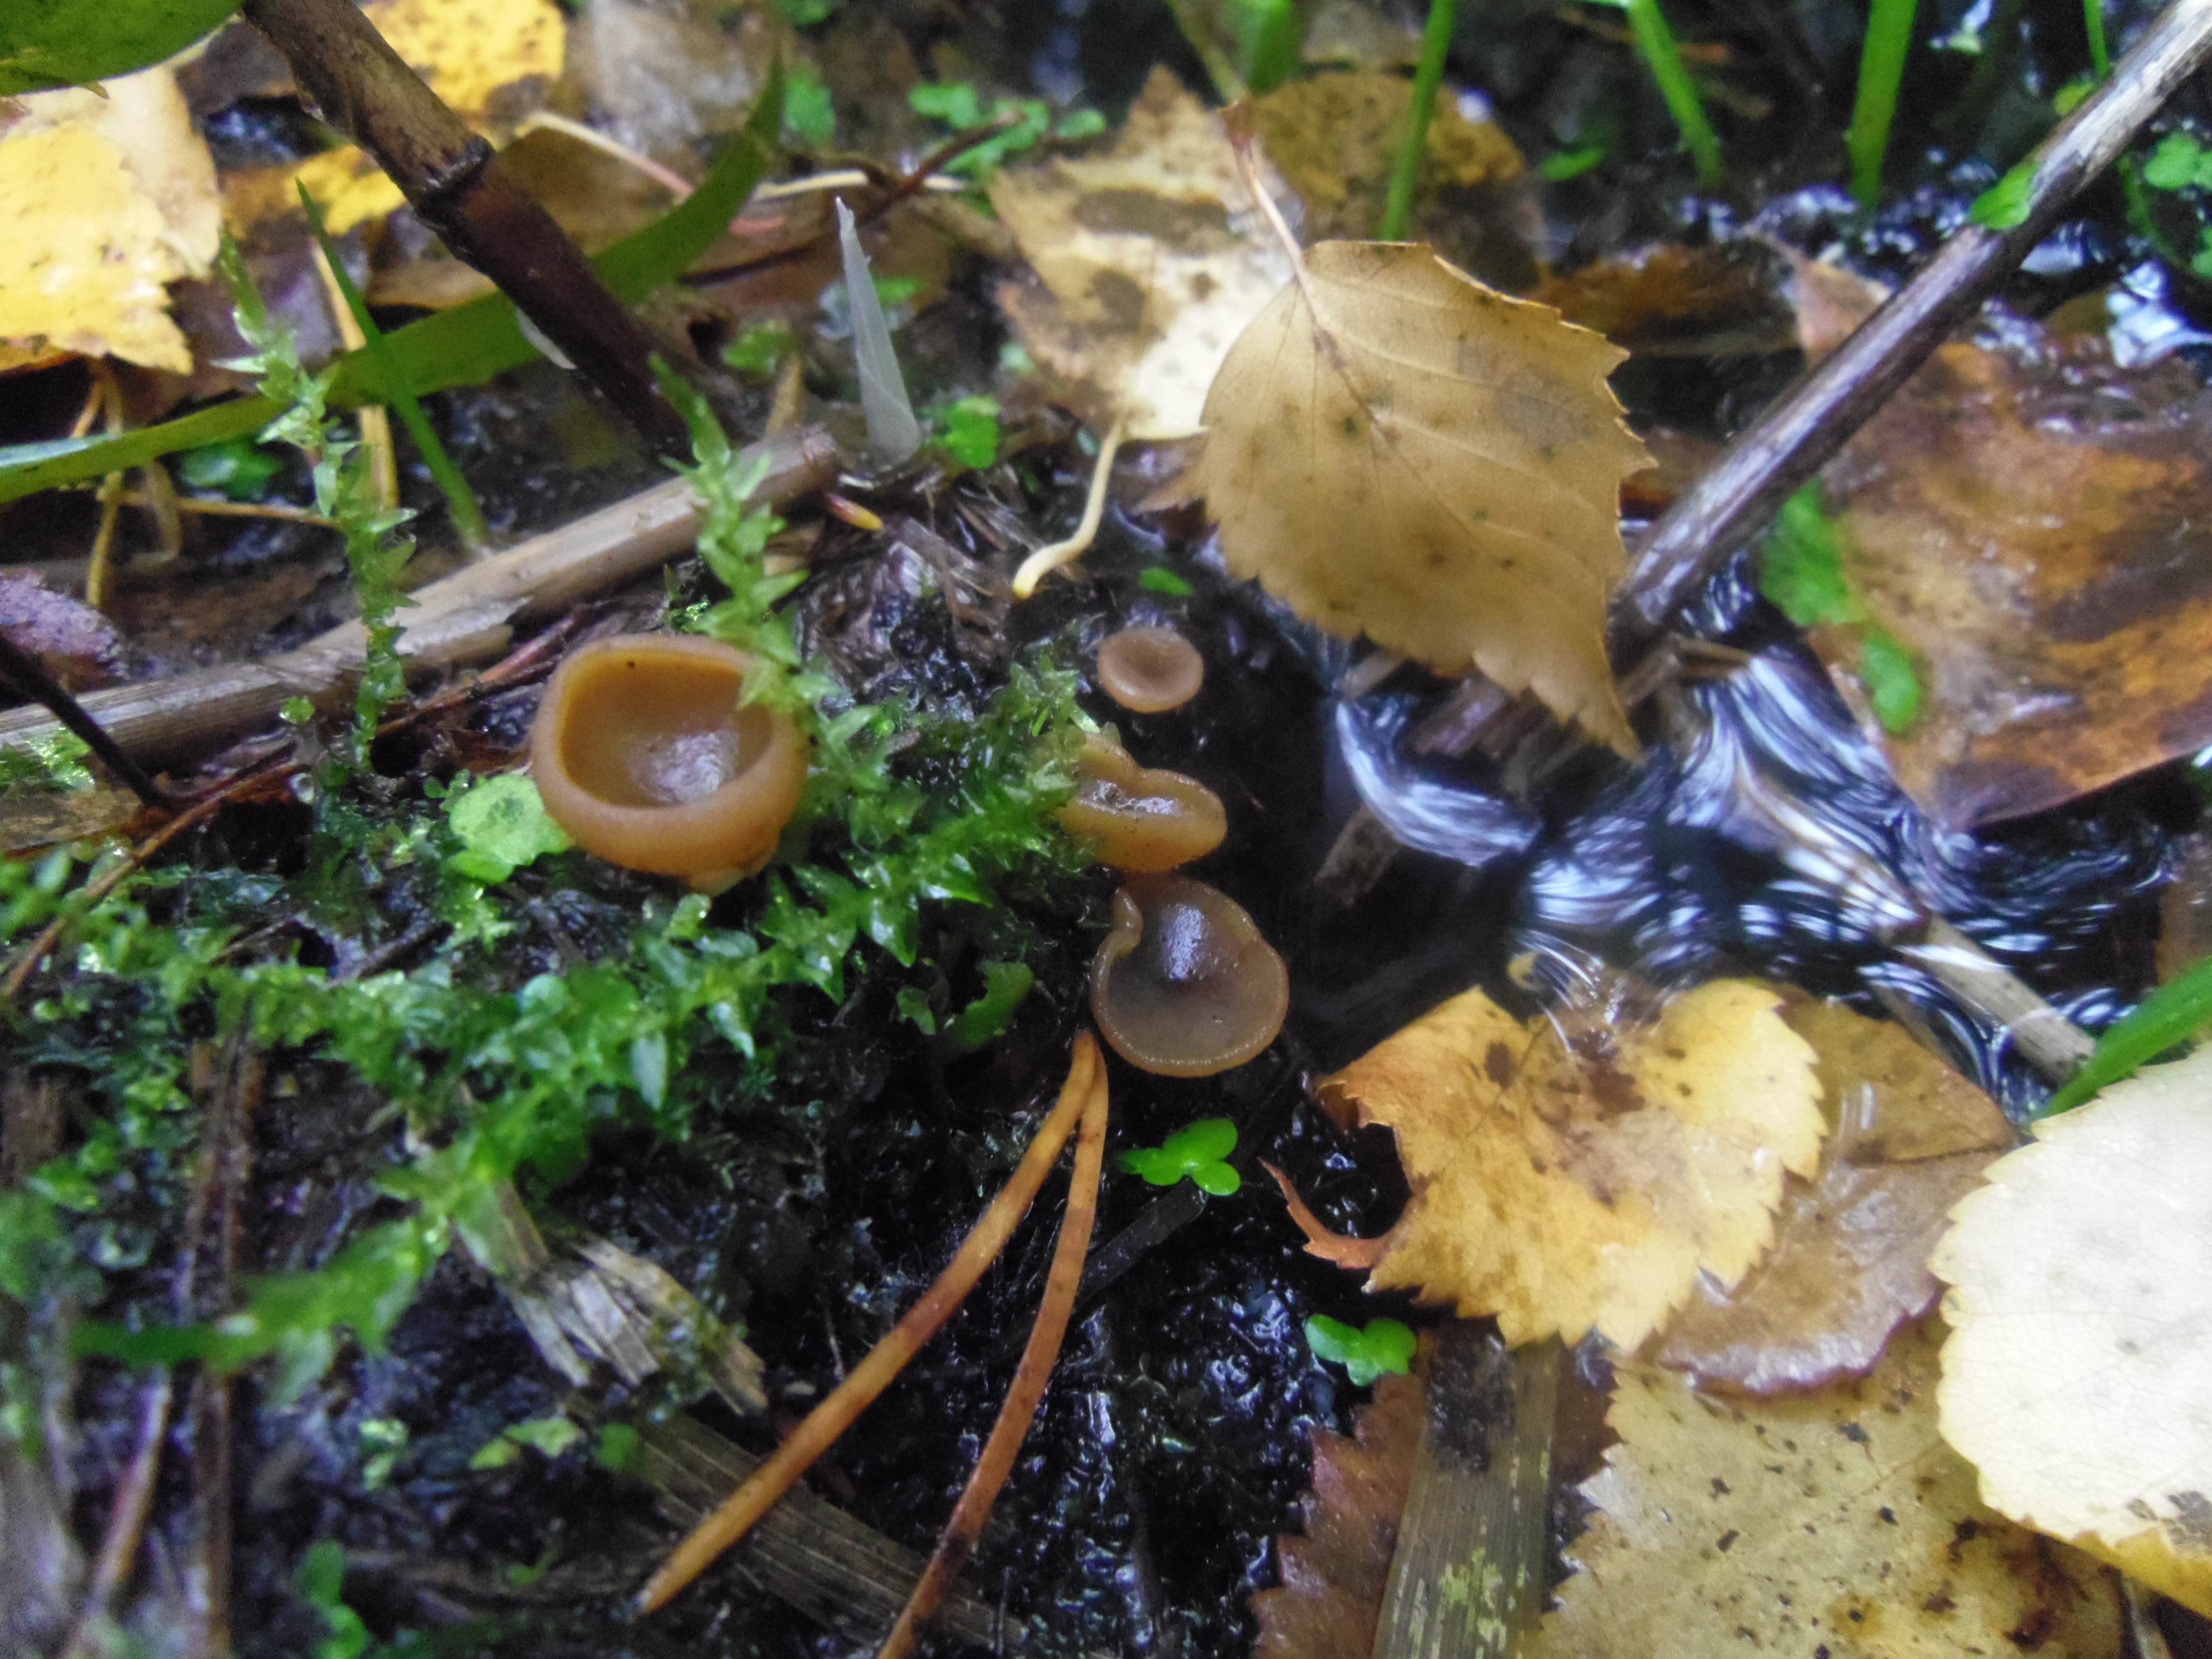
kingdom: Fungi
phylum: Ascomycota
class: Pezizomycetes
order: Pezizales
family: Pezizaceae
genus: Legaliana
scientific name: Legaliana limnaea
